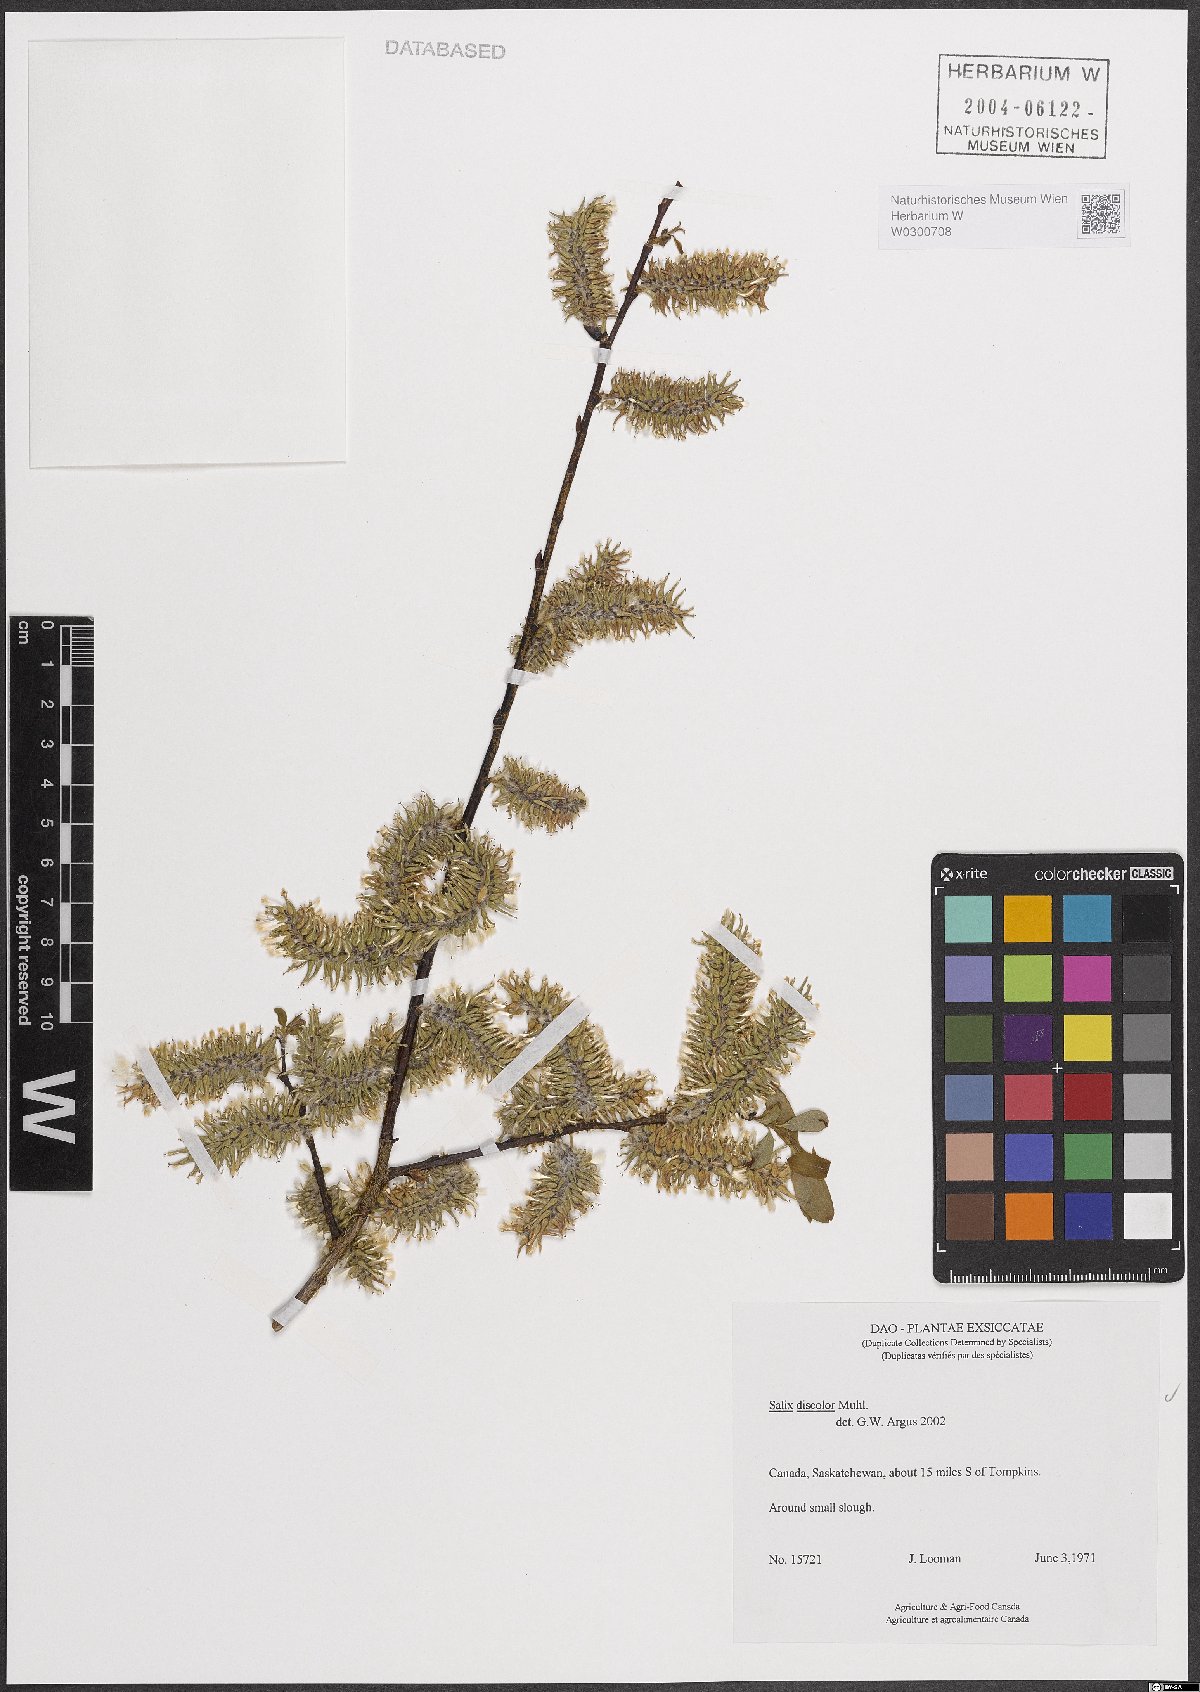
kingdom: Plantae
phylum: Tracheophyta
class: Magnoliopsida
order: Malpighiales
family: Salicaceae
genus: Salix
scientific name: Salix discolor
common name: Glaucous willow
